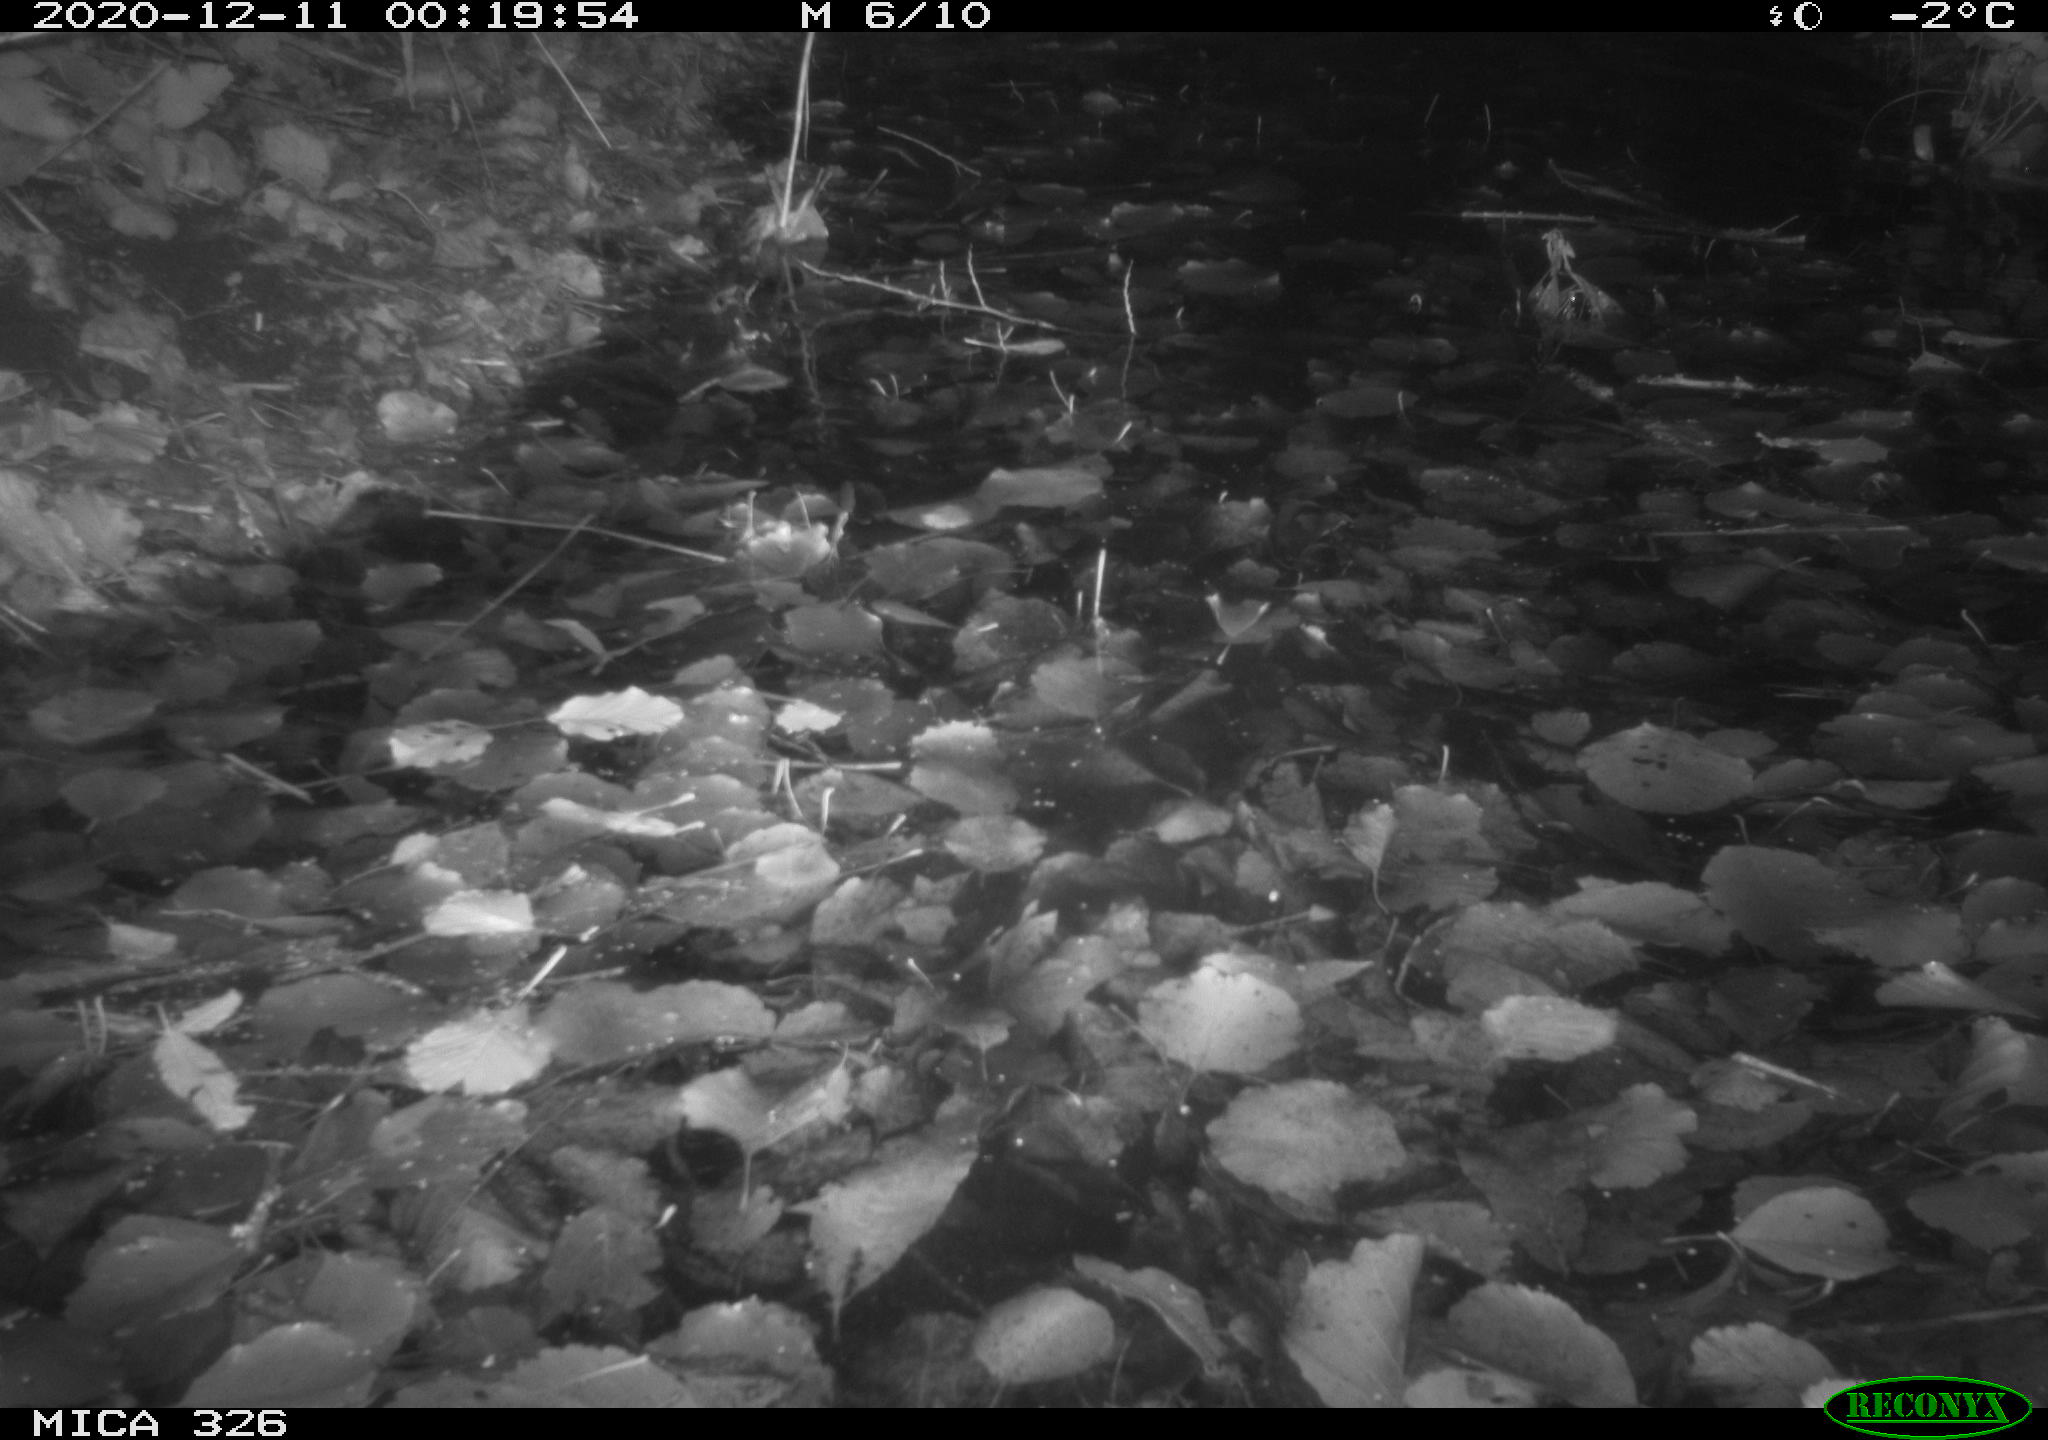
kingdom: Animalia
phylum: Chordata
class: Mammalia
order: Rodentia
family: Myocastoridae
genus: Myocastor
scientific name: Myocastor coypus
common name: Coypu
